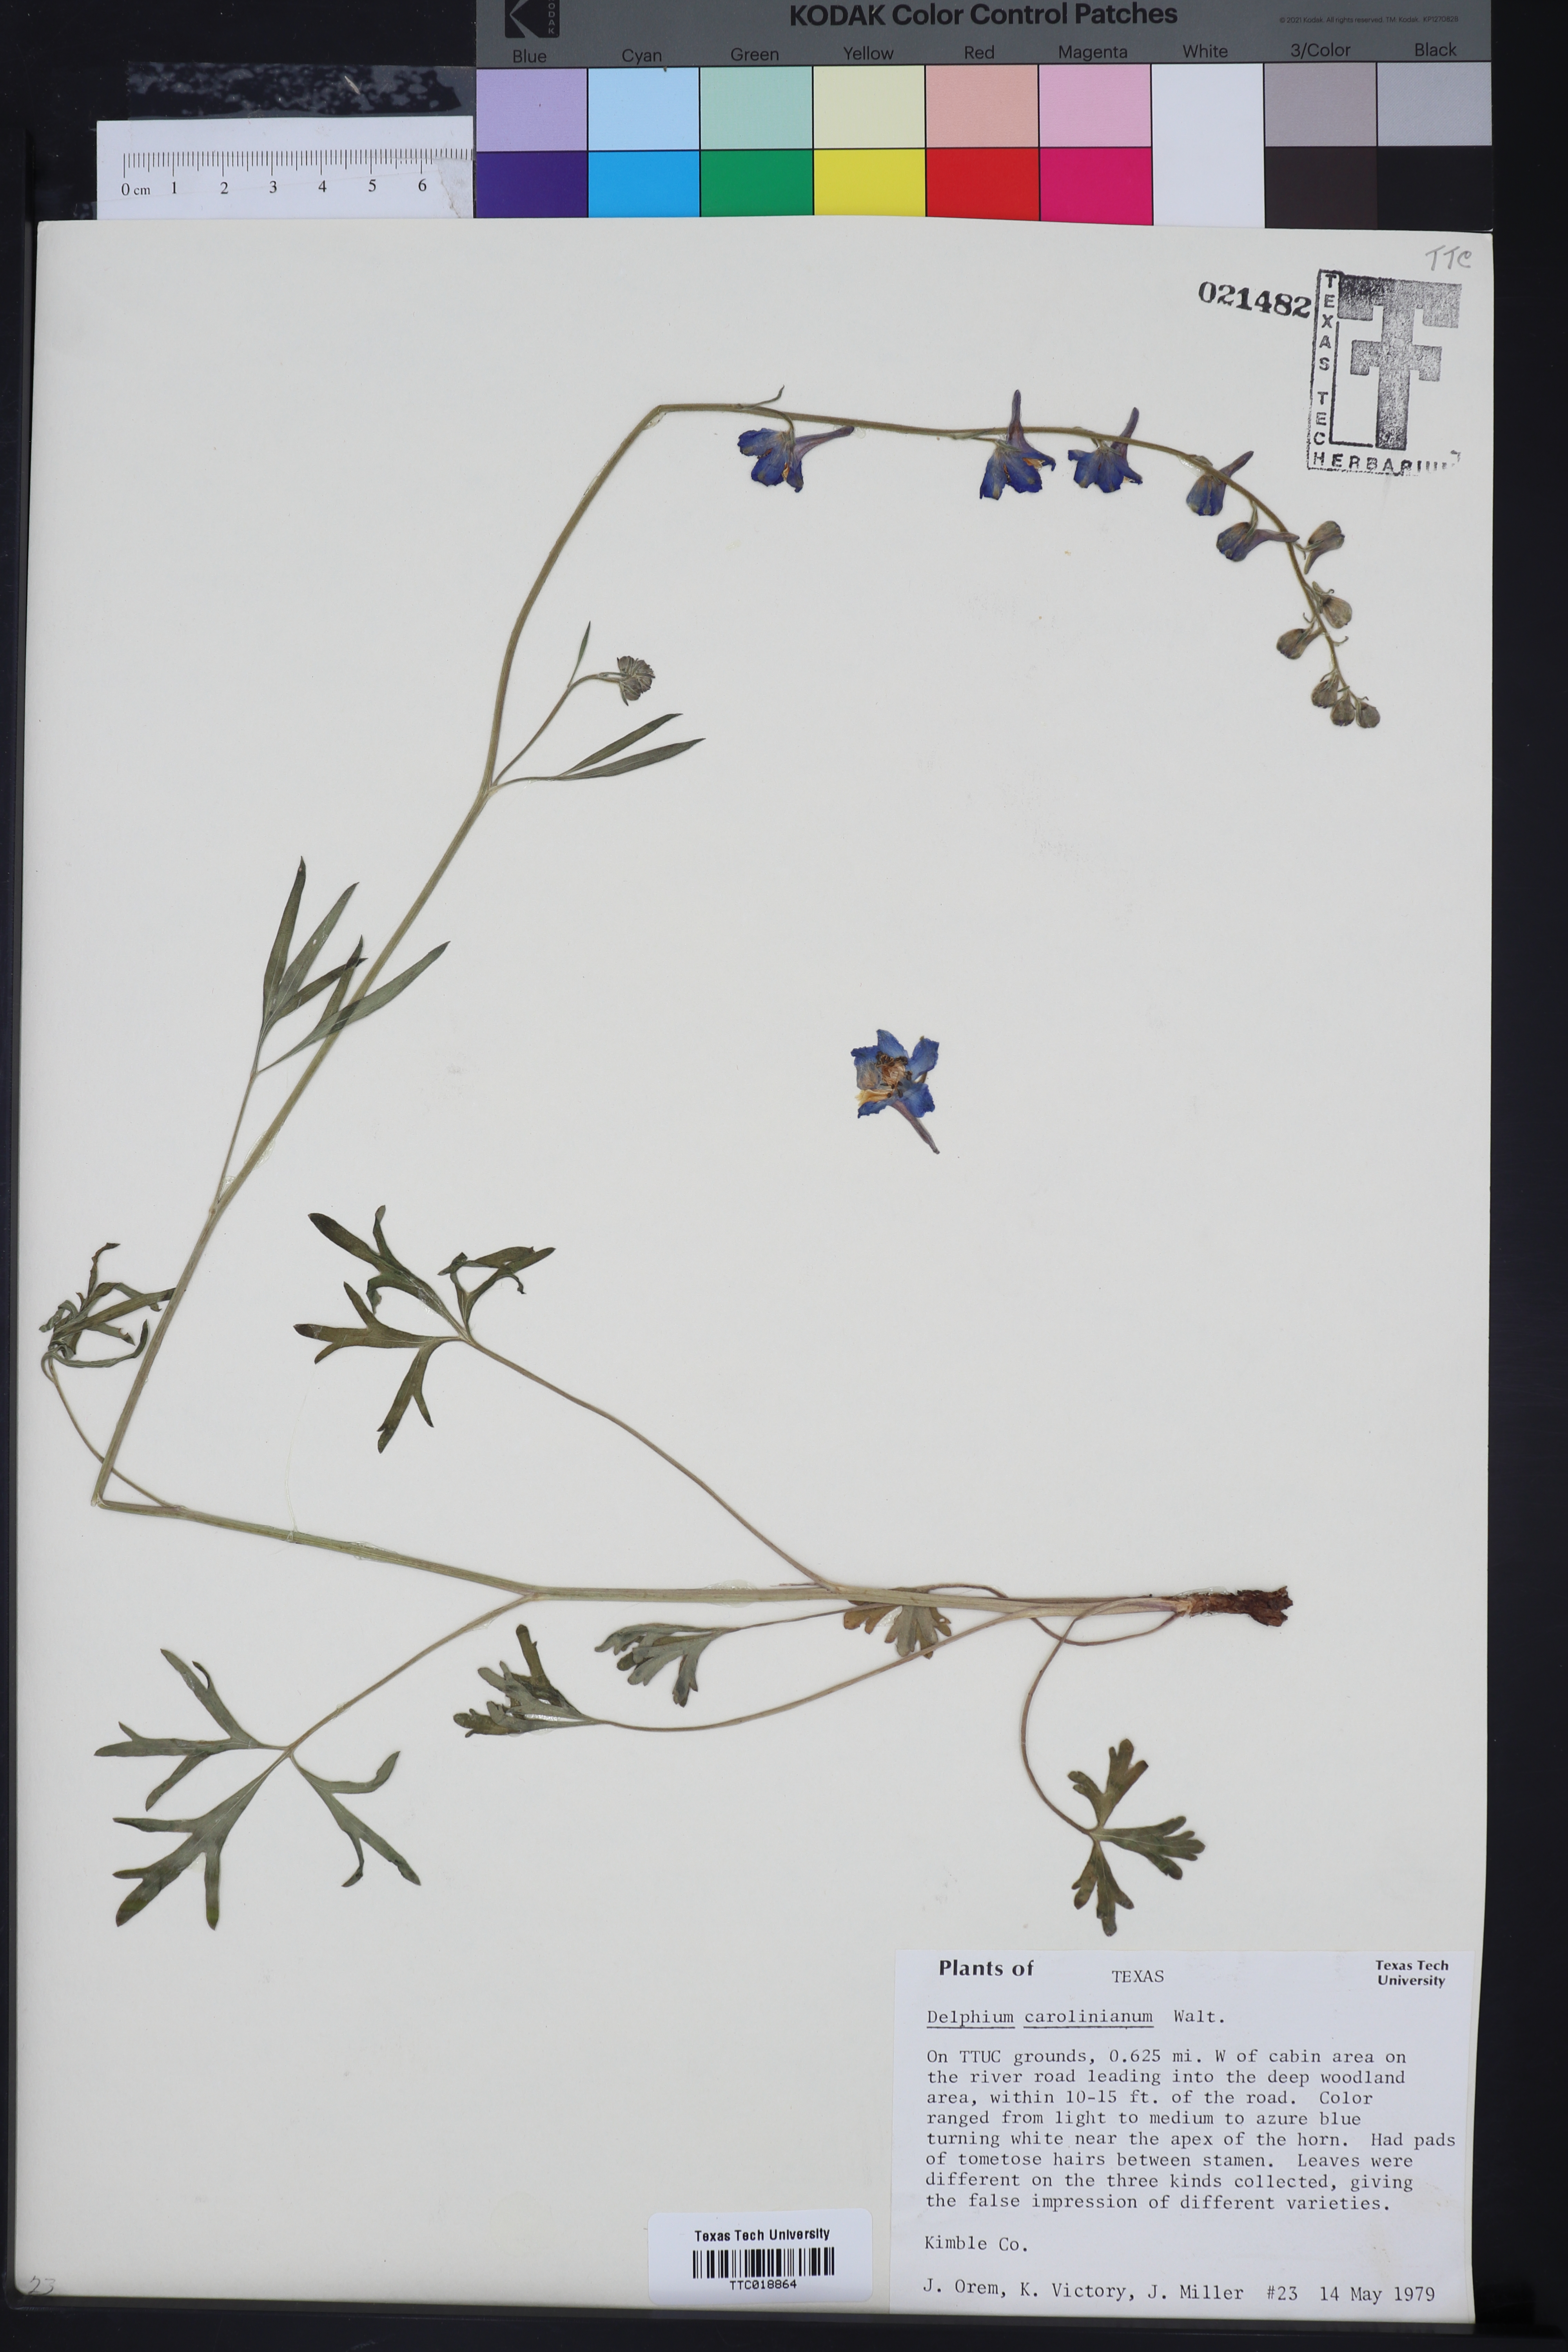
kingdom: Plantae
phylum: Tracheophyta
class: Magnoliopsida
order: Ranunculales
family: Ranunculaceae
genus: Delphinium
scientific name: Delphinium carolinianum
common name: Carolina larkspur
